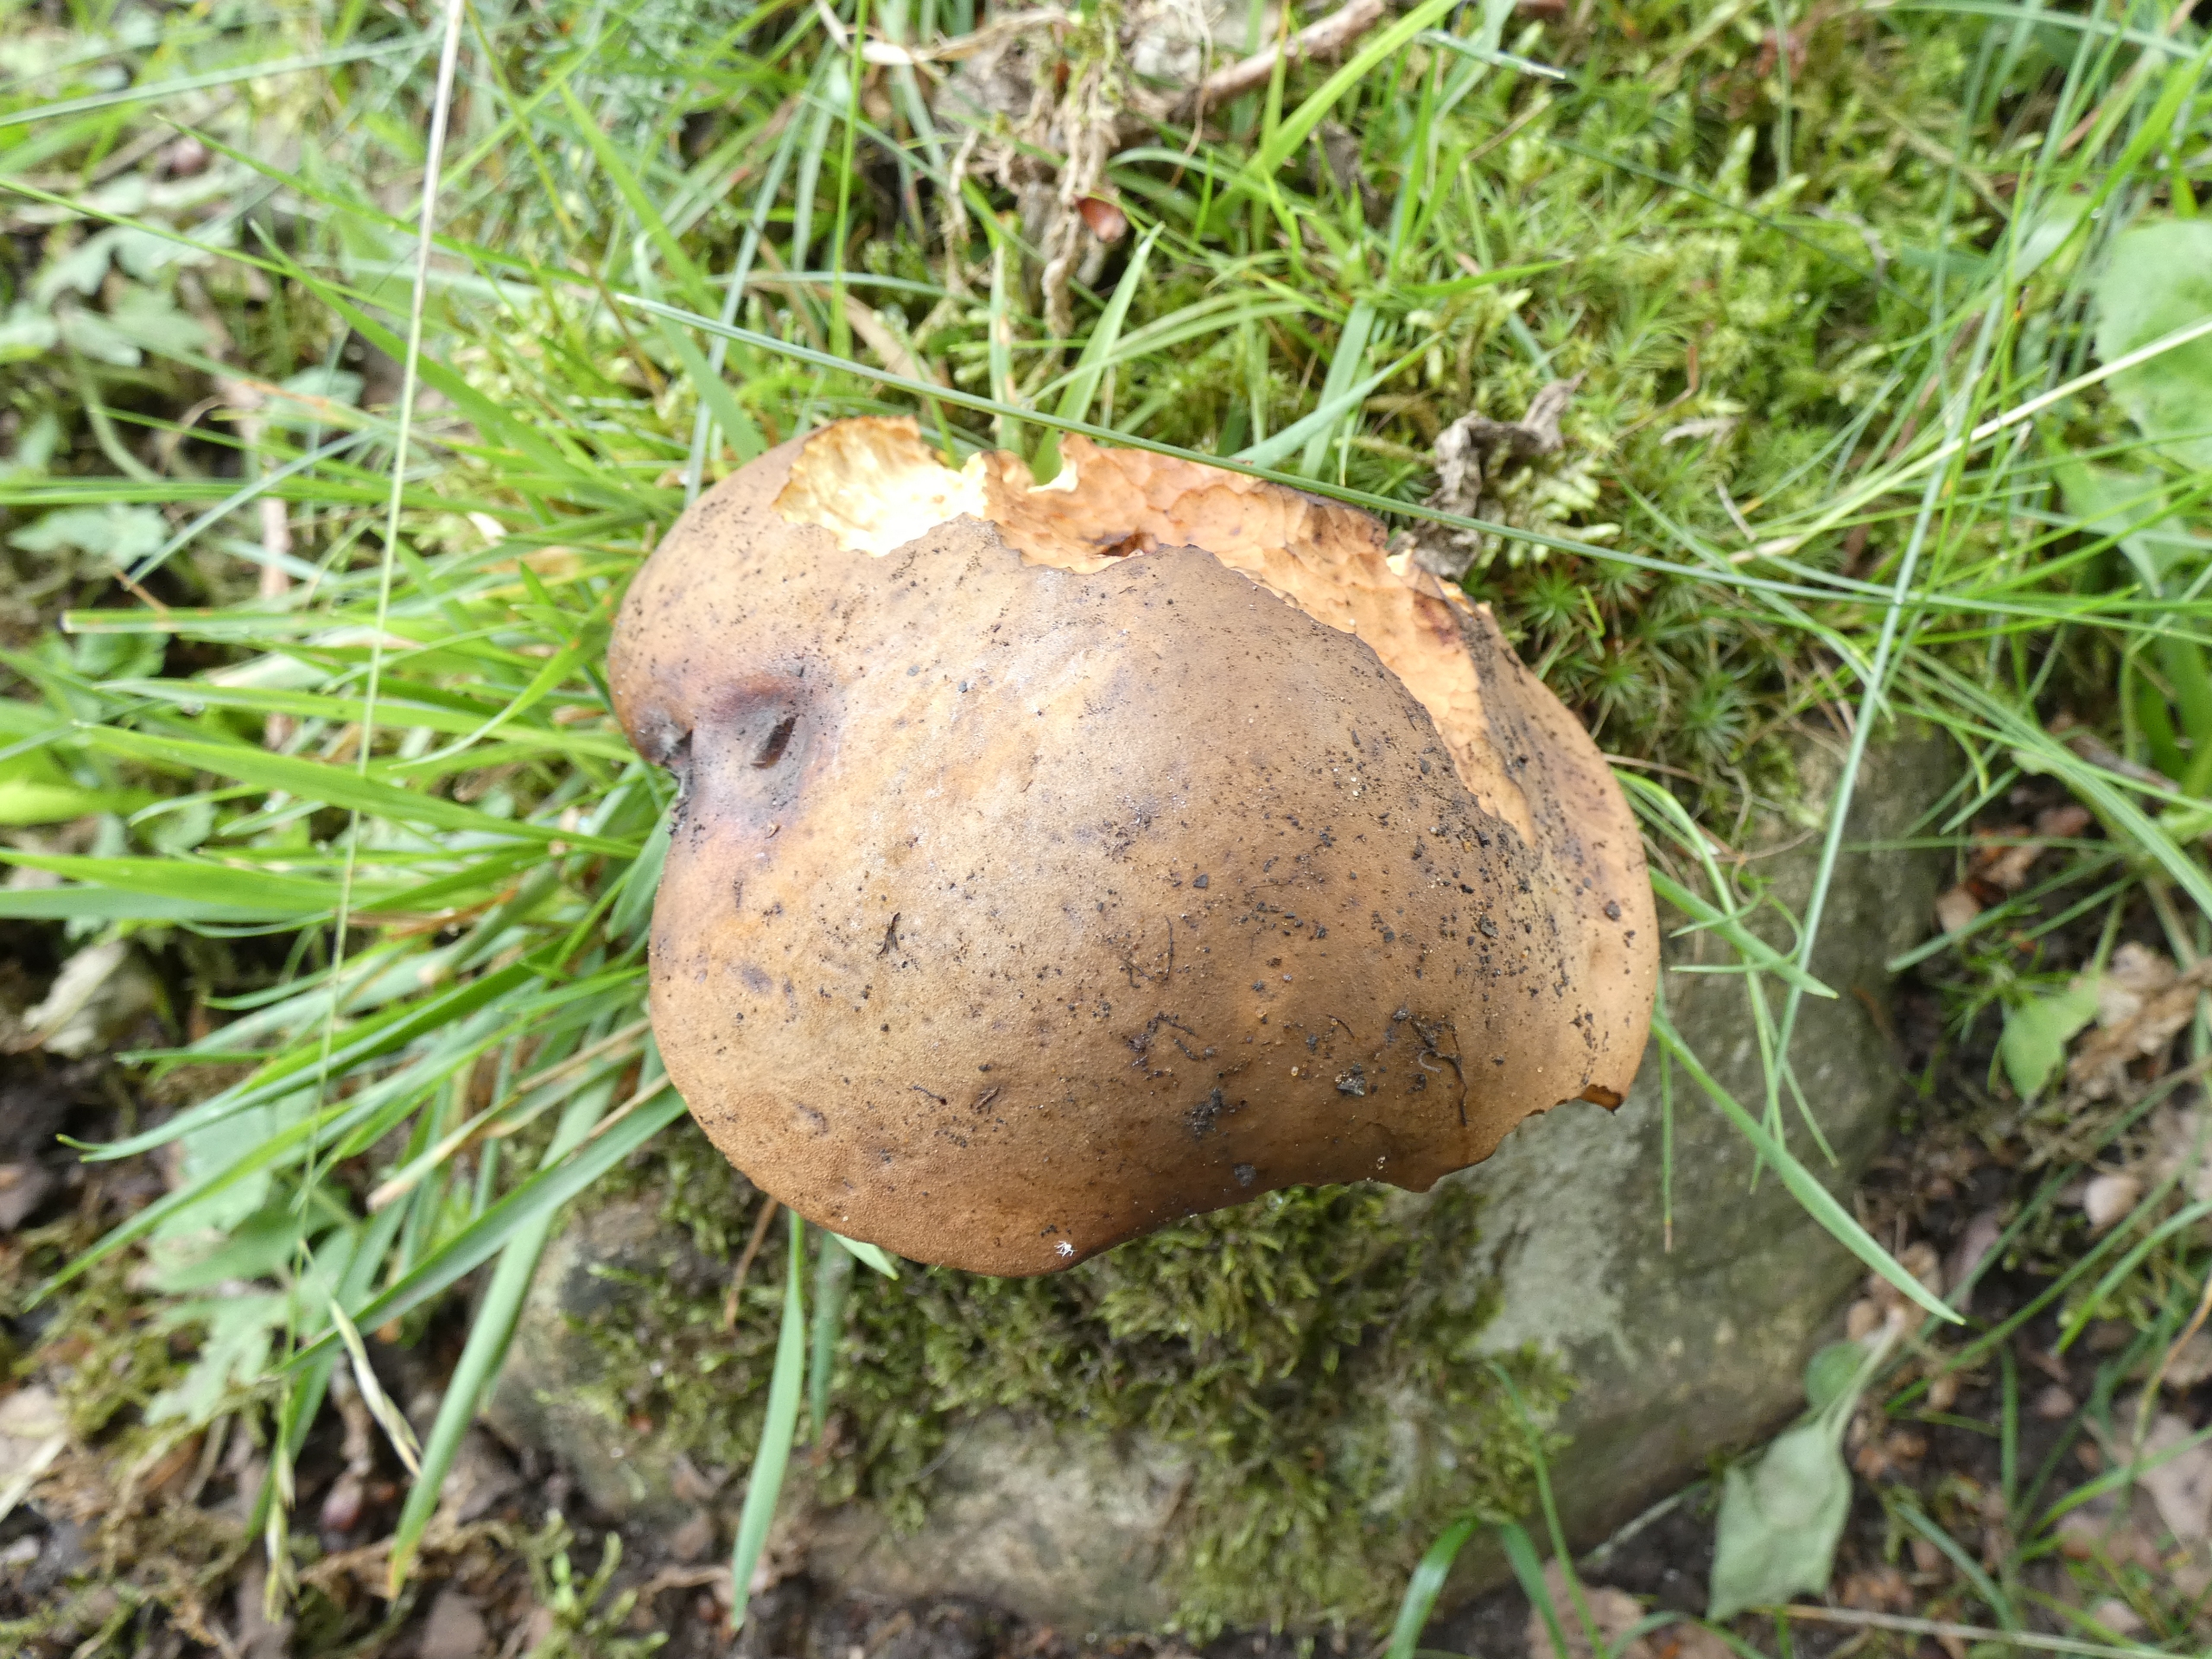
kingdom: Fungi
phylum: Basidiomycota
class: Agaricomycetes
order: Boletales
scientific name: Boletales
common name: Rørhatordenen
